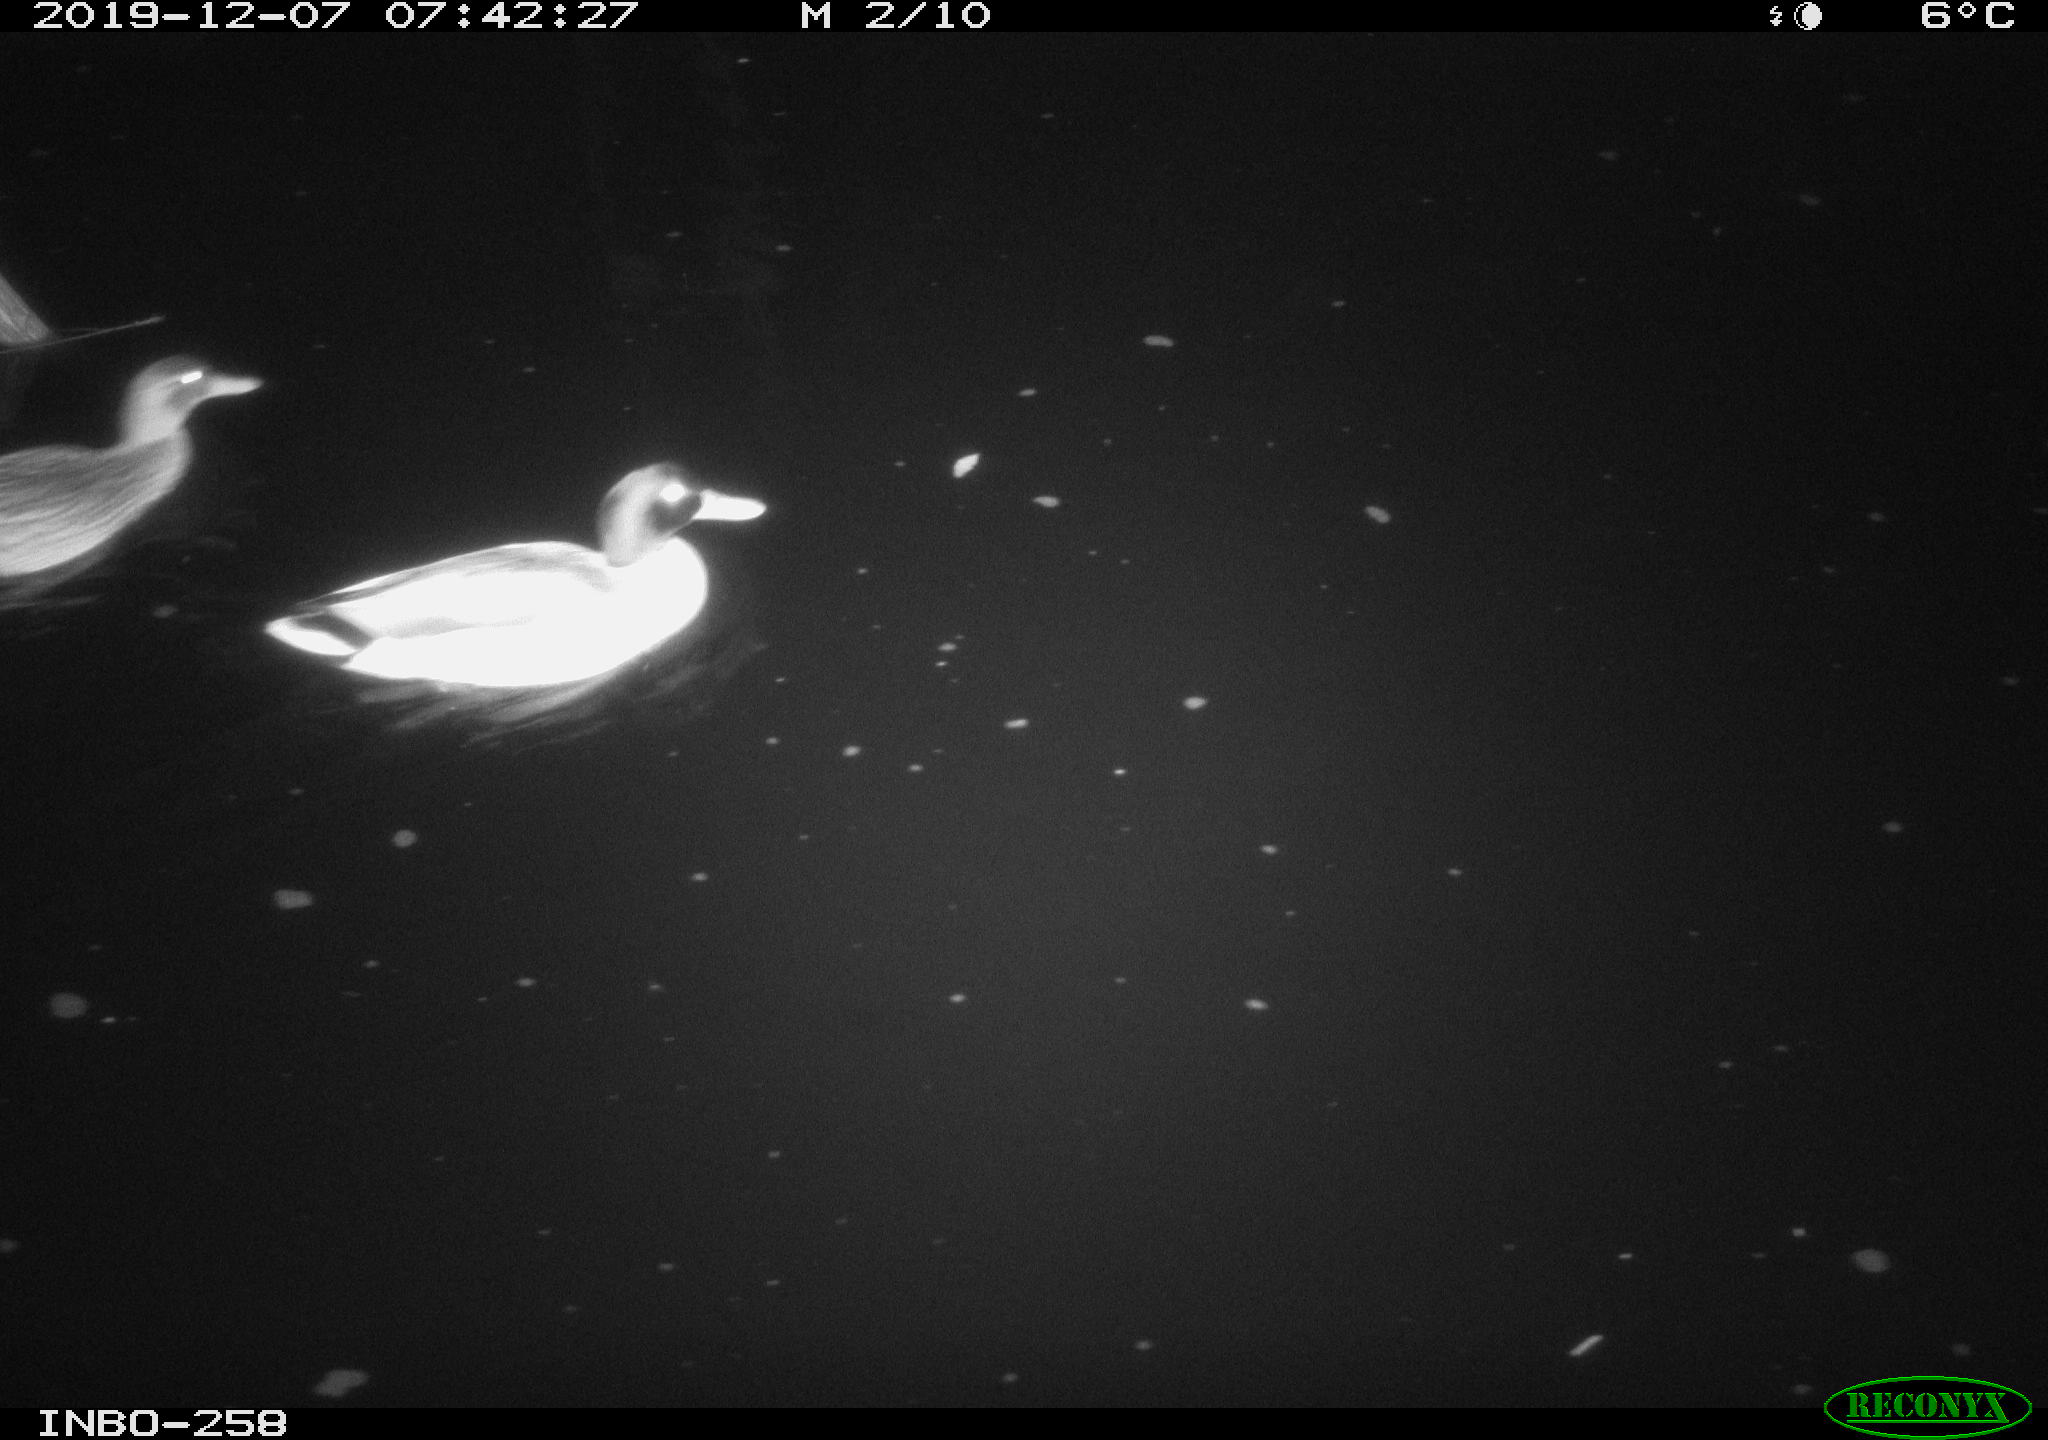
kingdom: Animalia
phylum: Chordata
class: Aves
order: Anseriformes
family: Anatidae
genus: Anas
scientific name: Anas platyrhynchos
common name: Mallard
